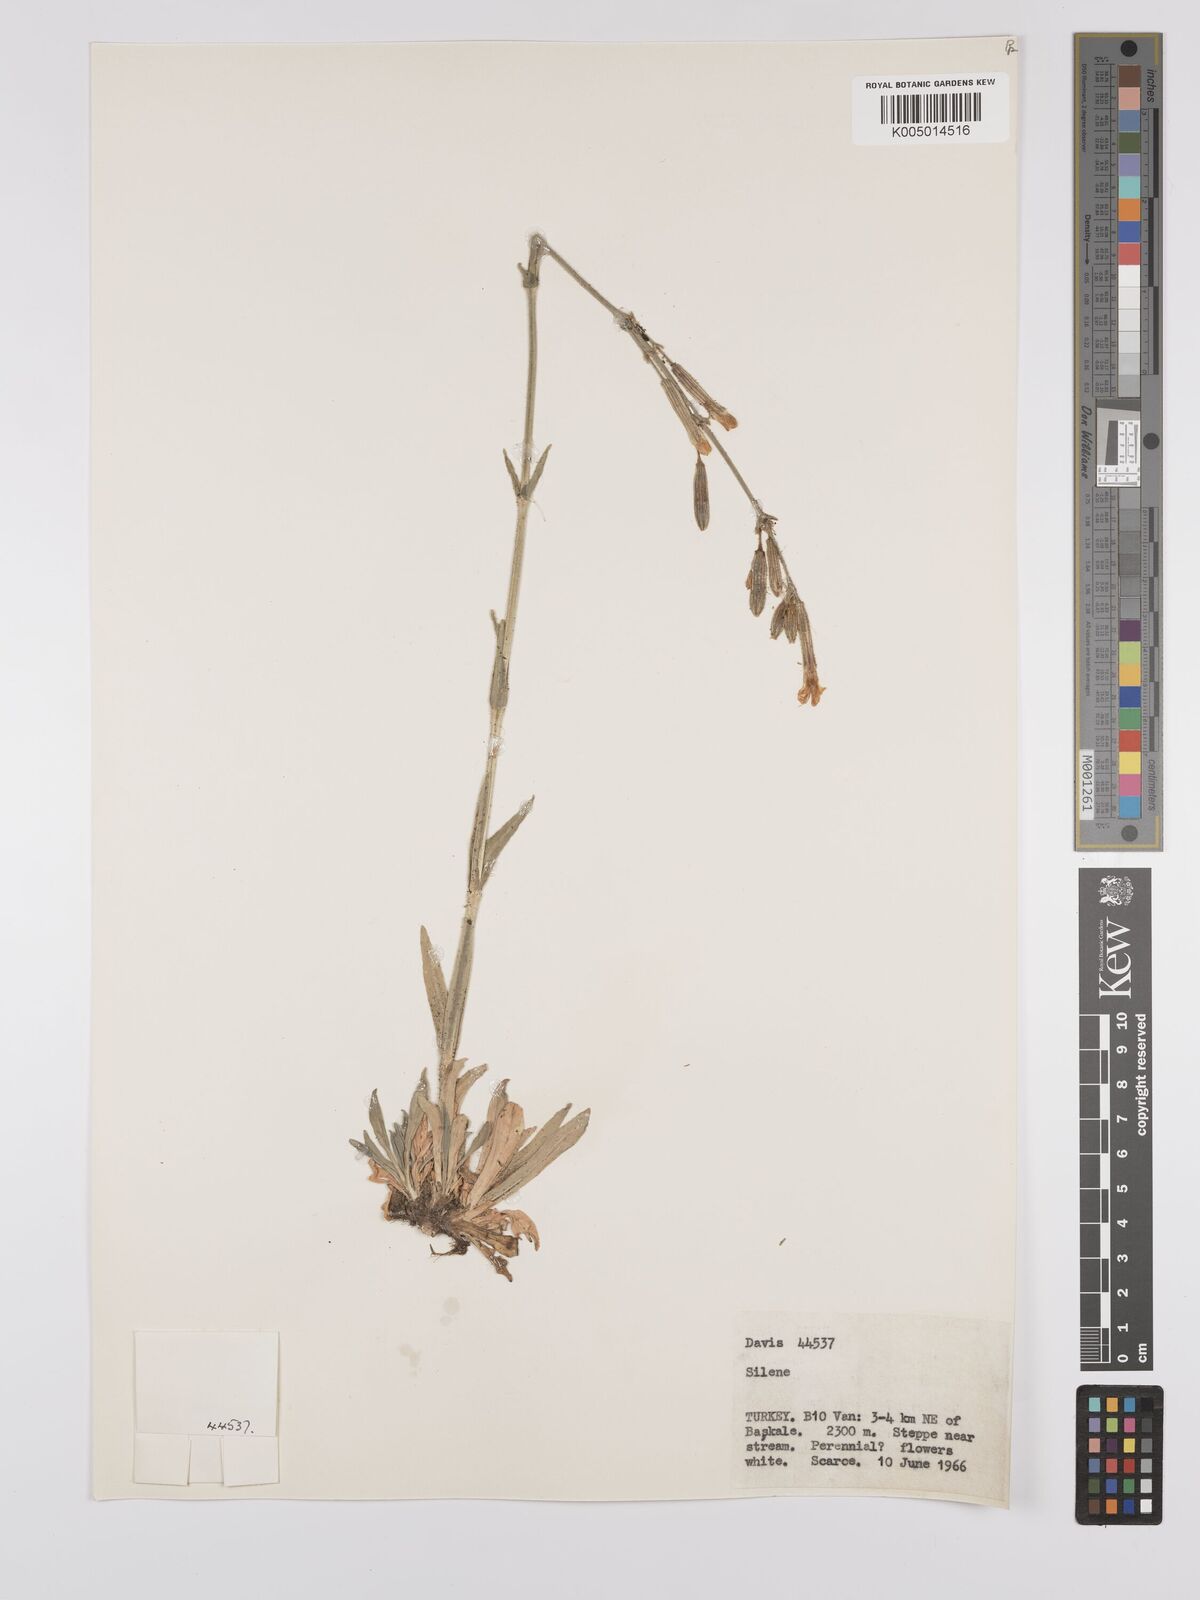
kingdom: Plantae
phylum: Tracheophyta
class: Magnoliopsida
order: Caryophyllales
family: Caryophyllaceae
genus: Silene
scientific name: Silene
